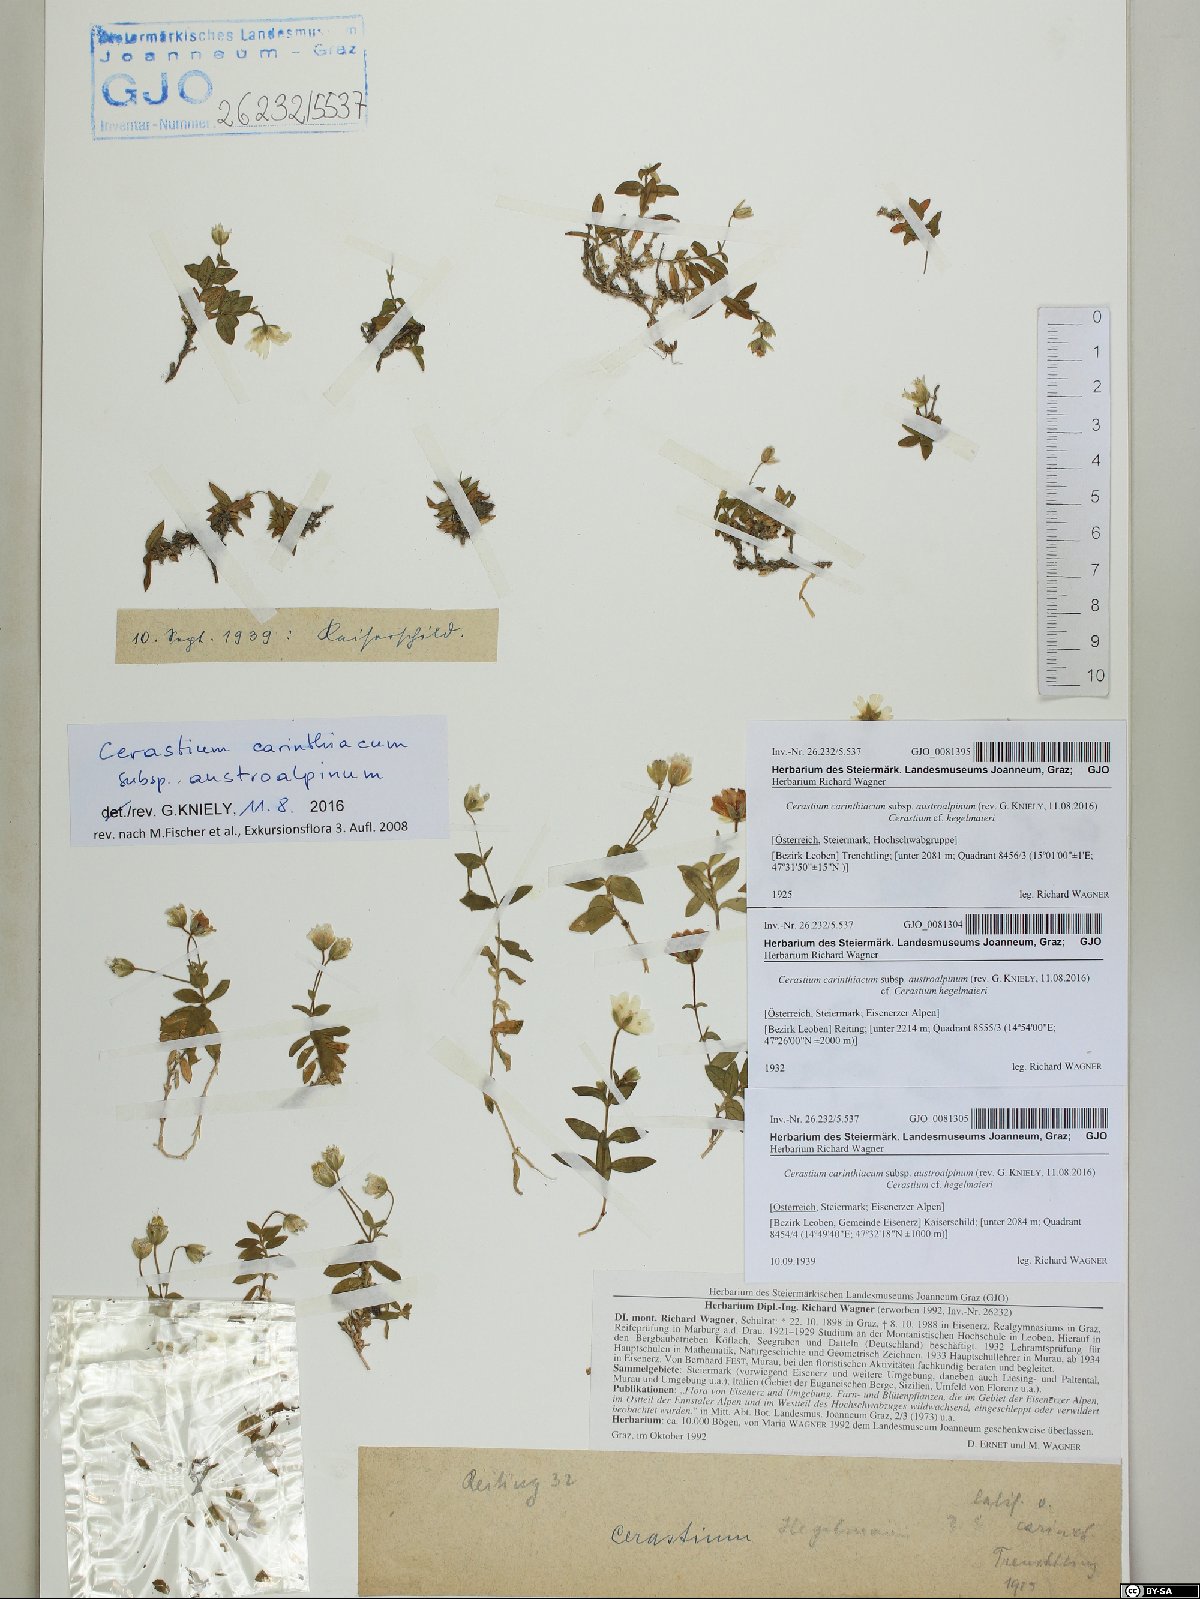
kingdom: Plantae
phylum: Tracheophyta
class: Magnoliopsida
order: Caryophyllales
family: Caryophyllaceae
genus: Cerastium
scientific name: Cerastium carinthiacum
